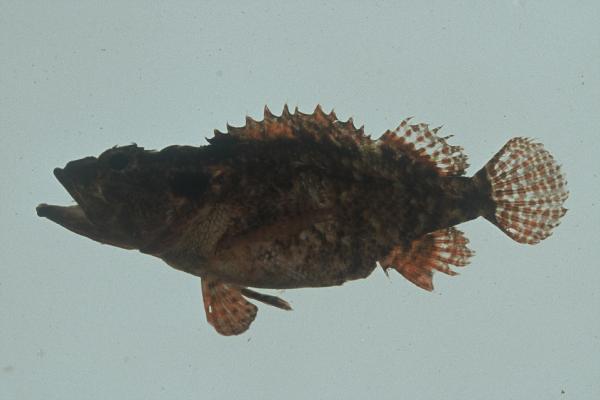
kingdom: Animalia
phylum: Chordata
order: Scorpaeniformes
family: Scorpaenidae
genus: Scorpaenodes
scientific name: Scorpaenodes guamensis
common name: Guam scorpionfish
